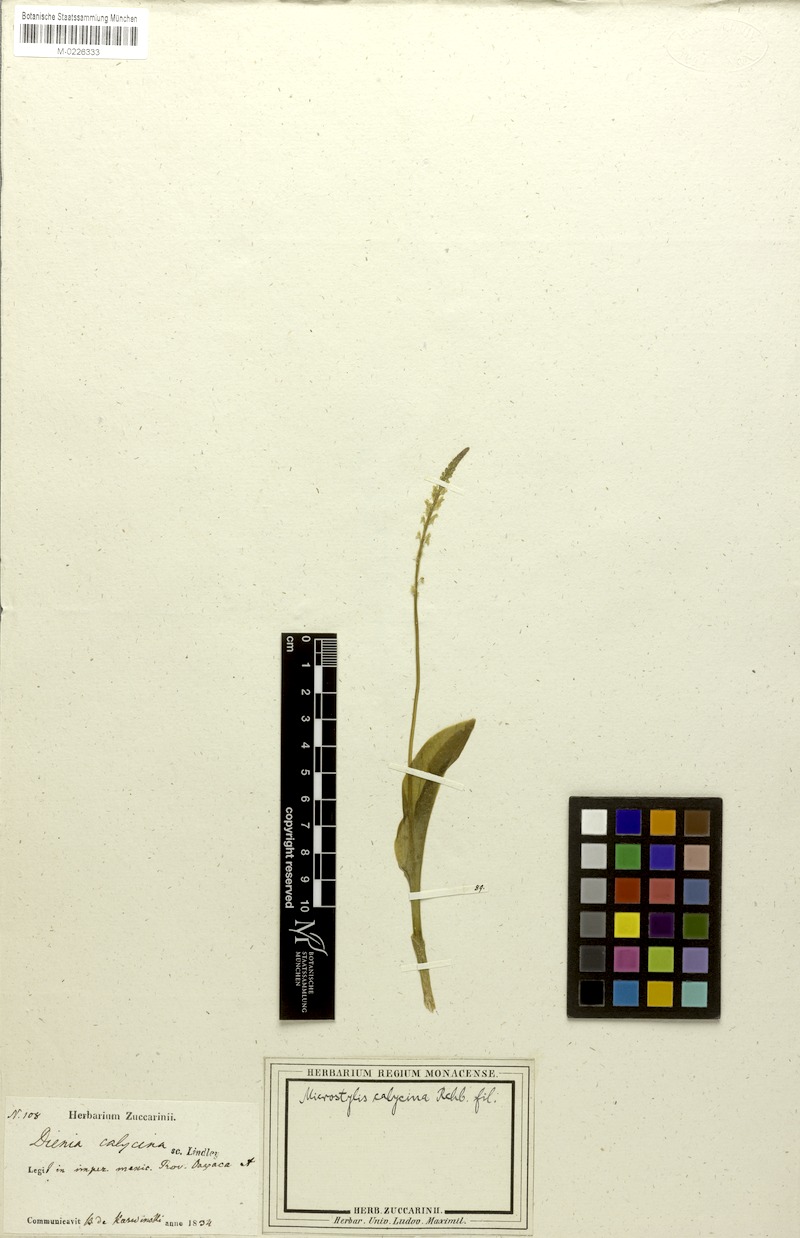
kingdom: Plantae
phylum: Tracheophyta
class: Liliopsida
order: Asparagales
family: Orchidaceae
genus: Malaxis
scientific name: Malaxis carnosa
